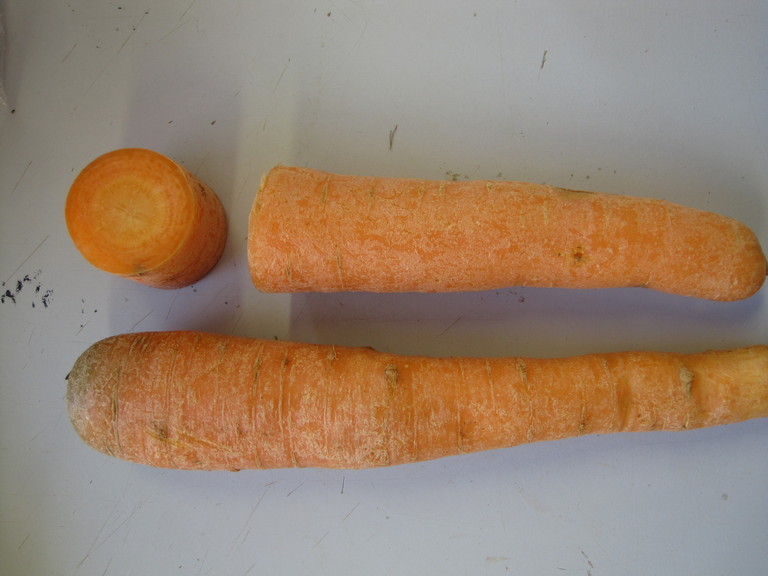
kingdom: Plantae
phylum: Tracheophyta
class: Magnoliopsida
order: Apiales
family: Apiaceae
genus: Daucus
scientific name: Daucus carota
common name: Wild carrot
